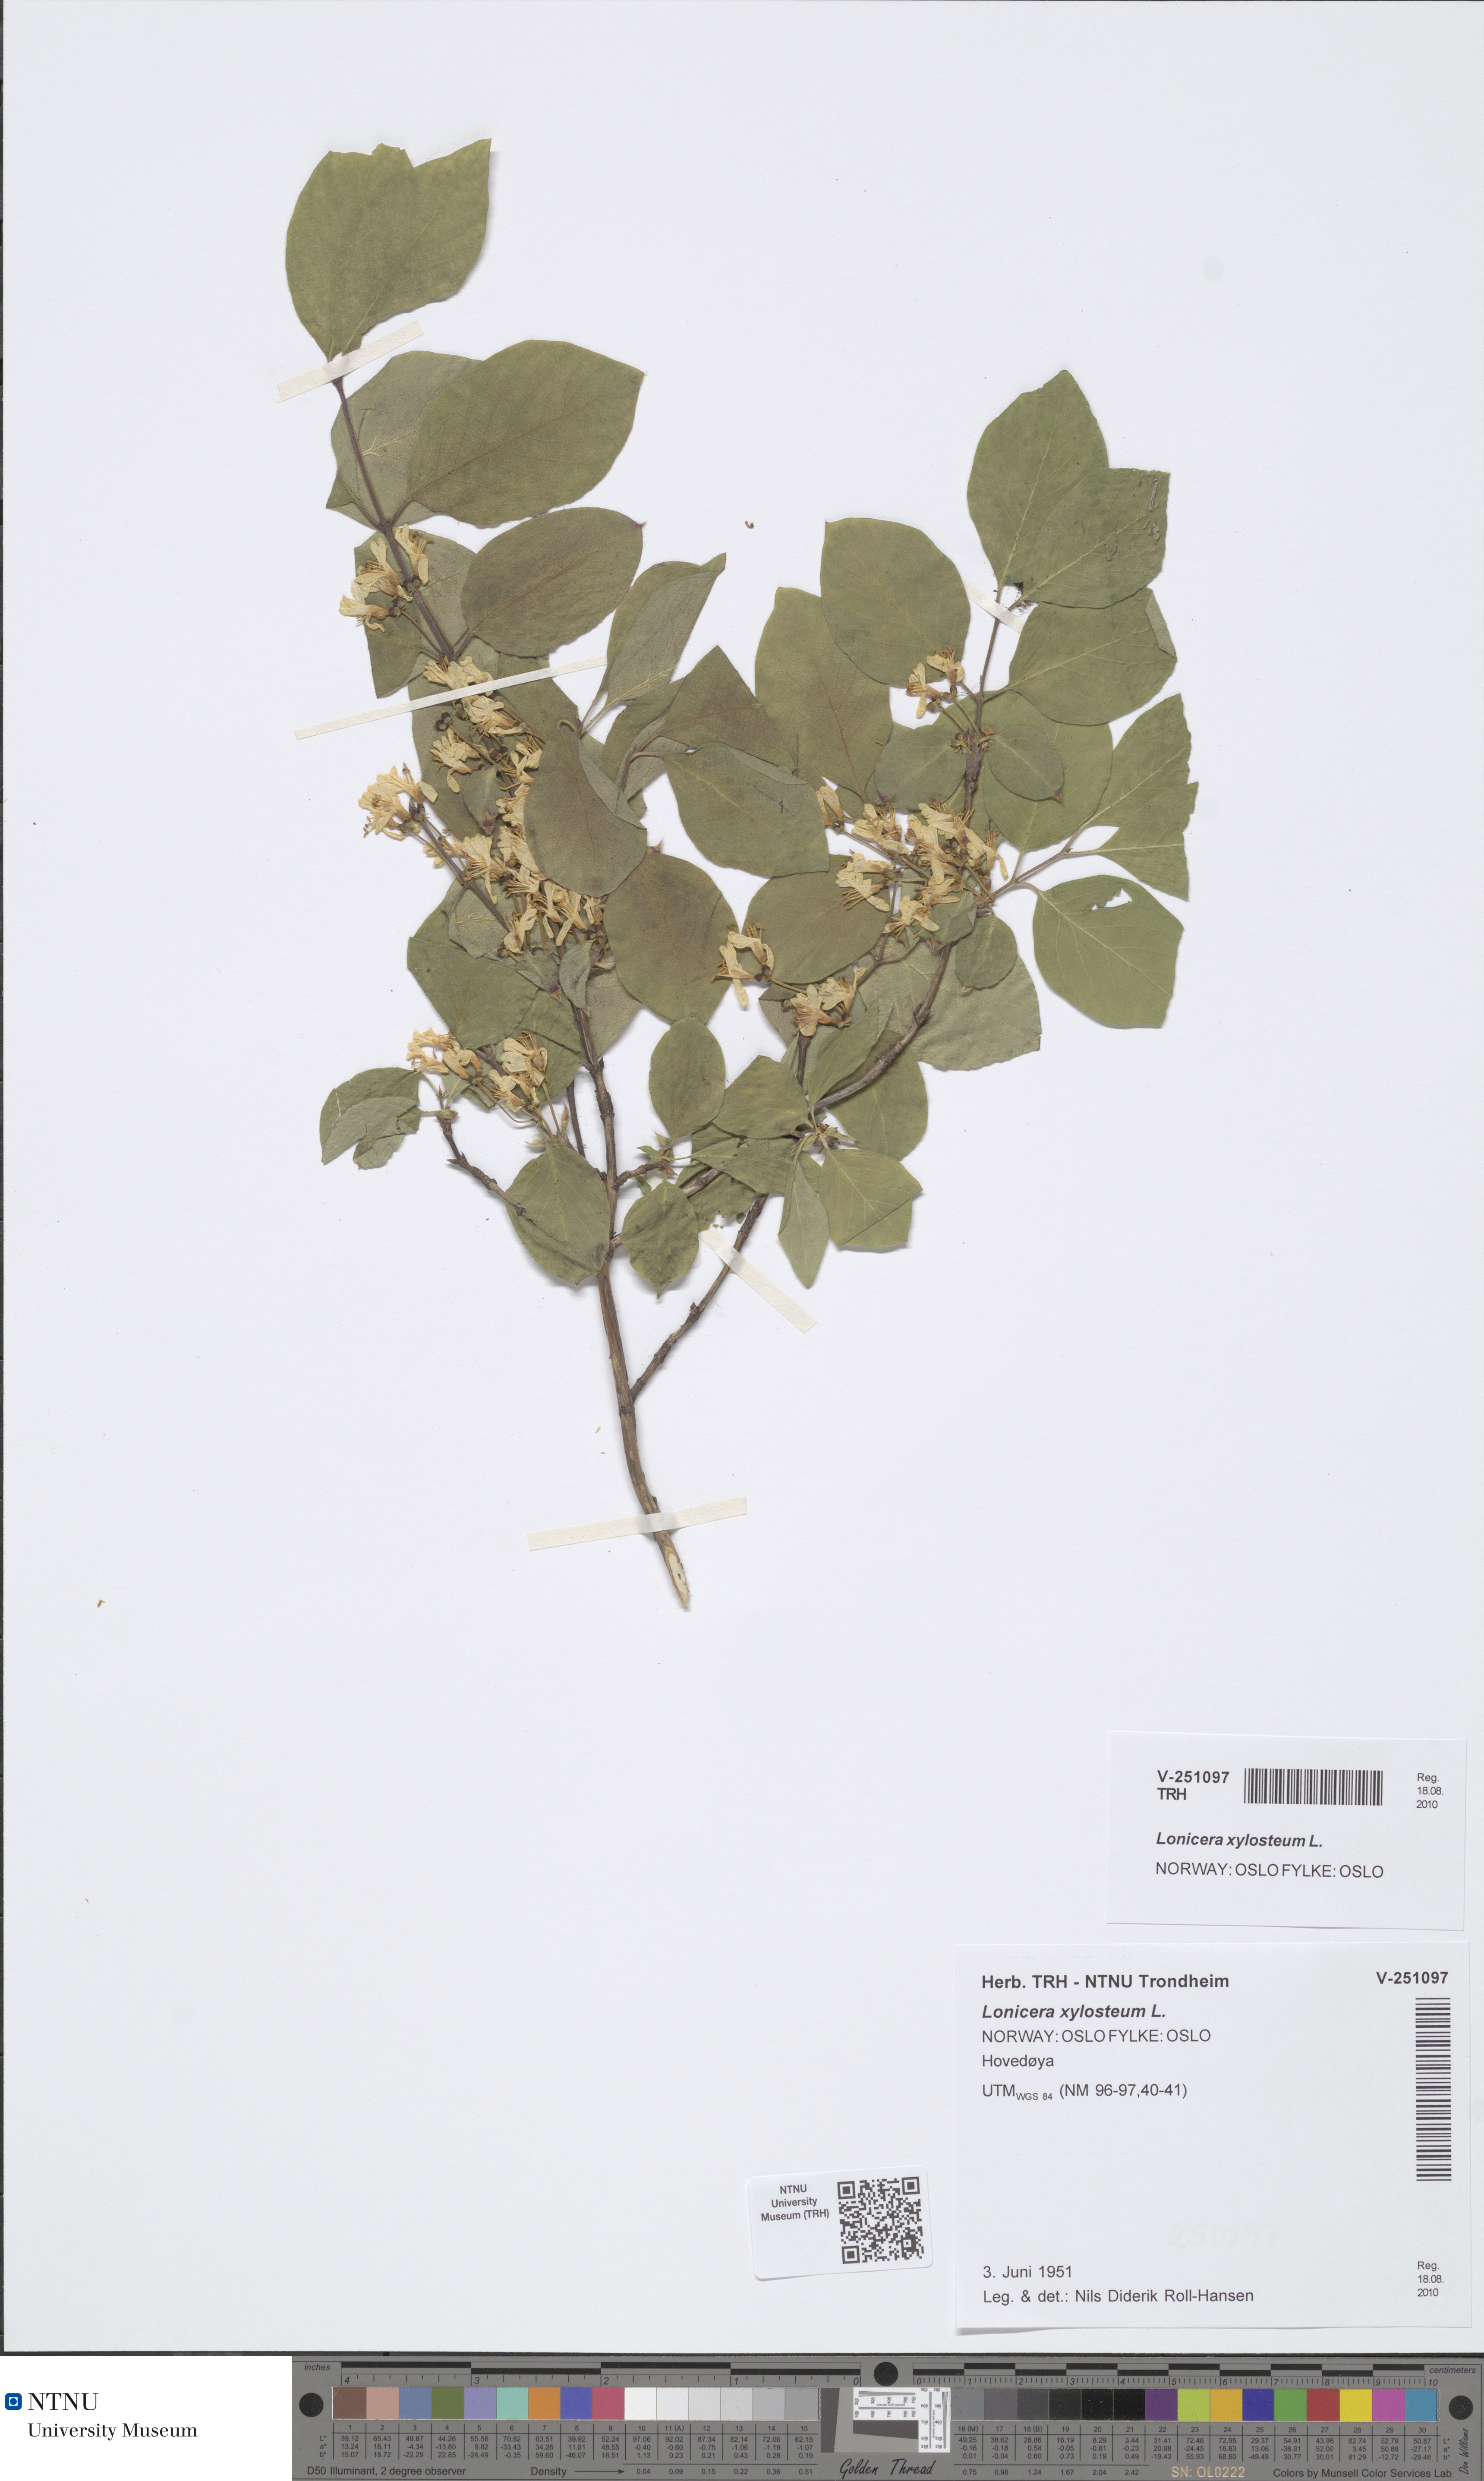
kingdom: Plantae
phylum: Tracheophyta
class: Magnoliopsida
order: Dipsacales
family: Caprifoliaceae
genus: Lonicera
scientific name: Lonicera xylosteum
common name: Fly honeysuckle
